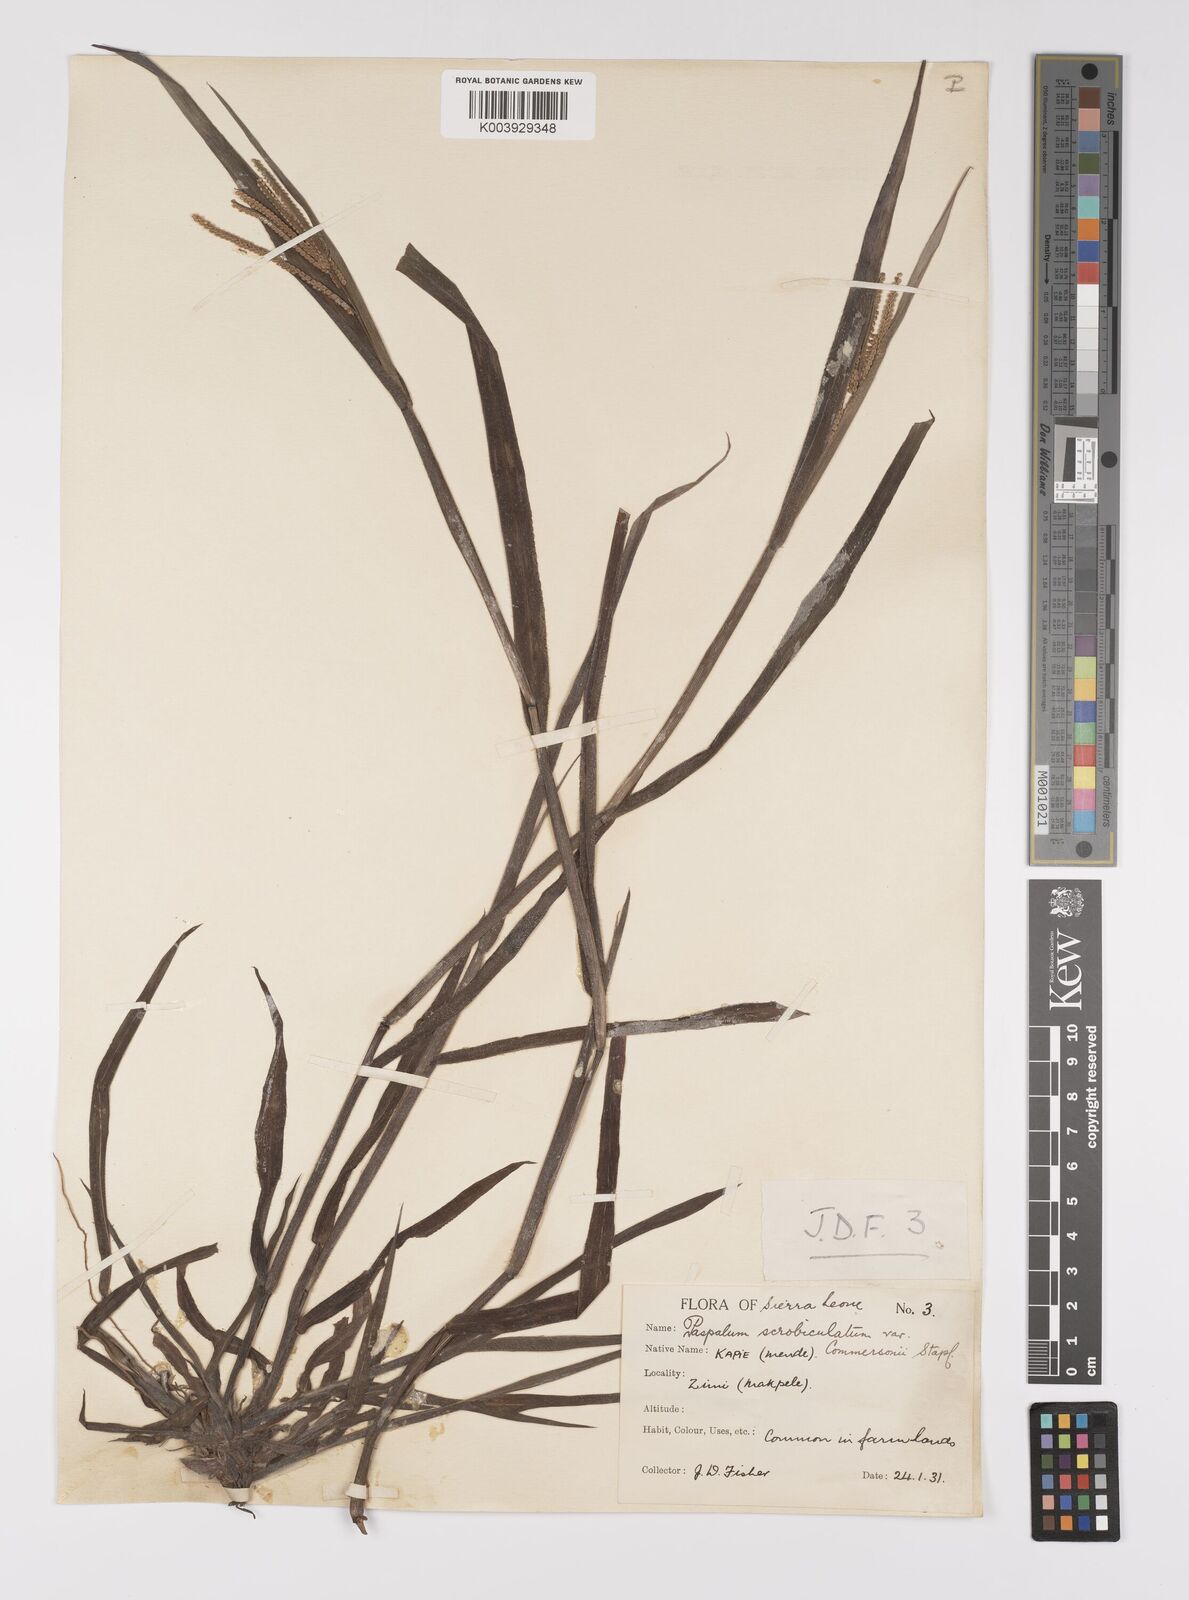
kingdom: Plantae
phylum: Tracheophyta
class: Liliopsida
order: Poales
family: Poaceae
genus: Paspalum
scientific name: Paspalum scrobiculatum
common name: Kodo millet
